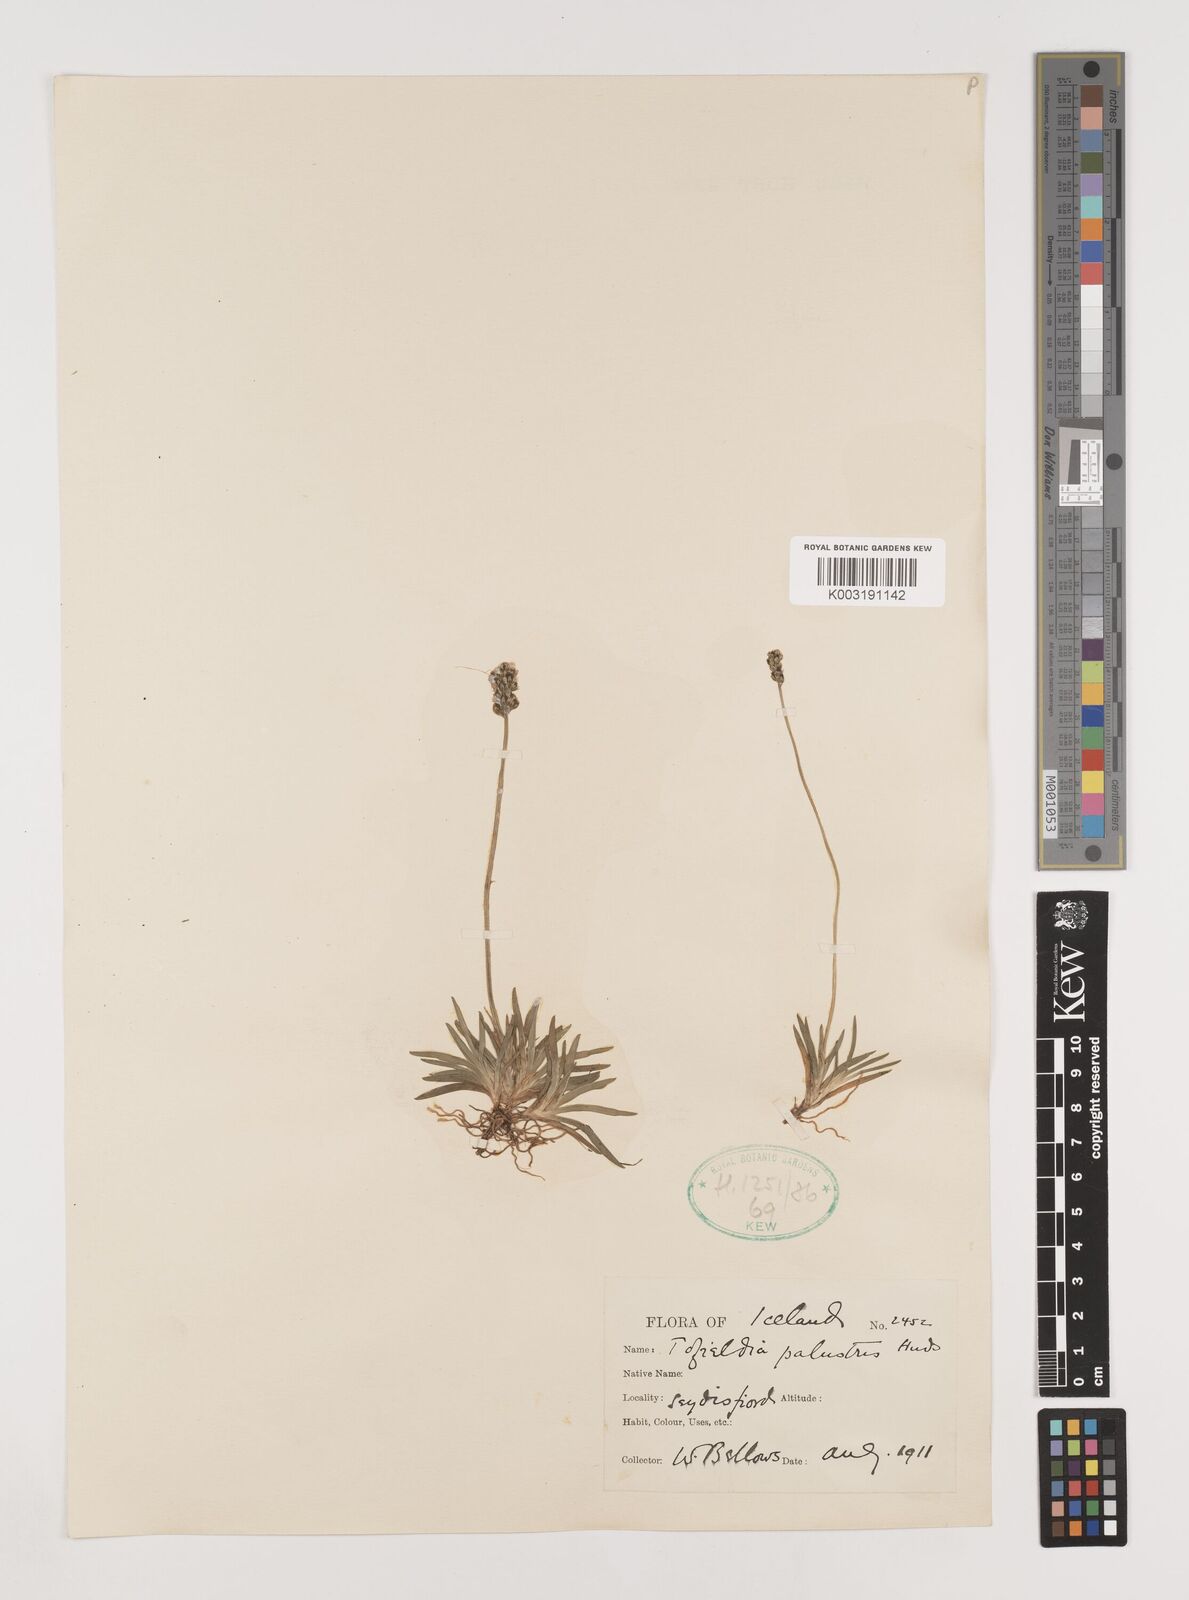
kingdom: Plantae
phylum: Tracheophyta
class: Liliopsida
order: Alismatales
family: Tofieldiaceae
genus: Tofieldia
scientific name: Tofieldia pusilla
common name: Scottish false asphodel
